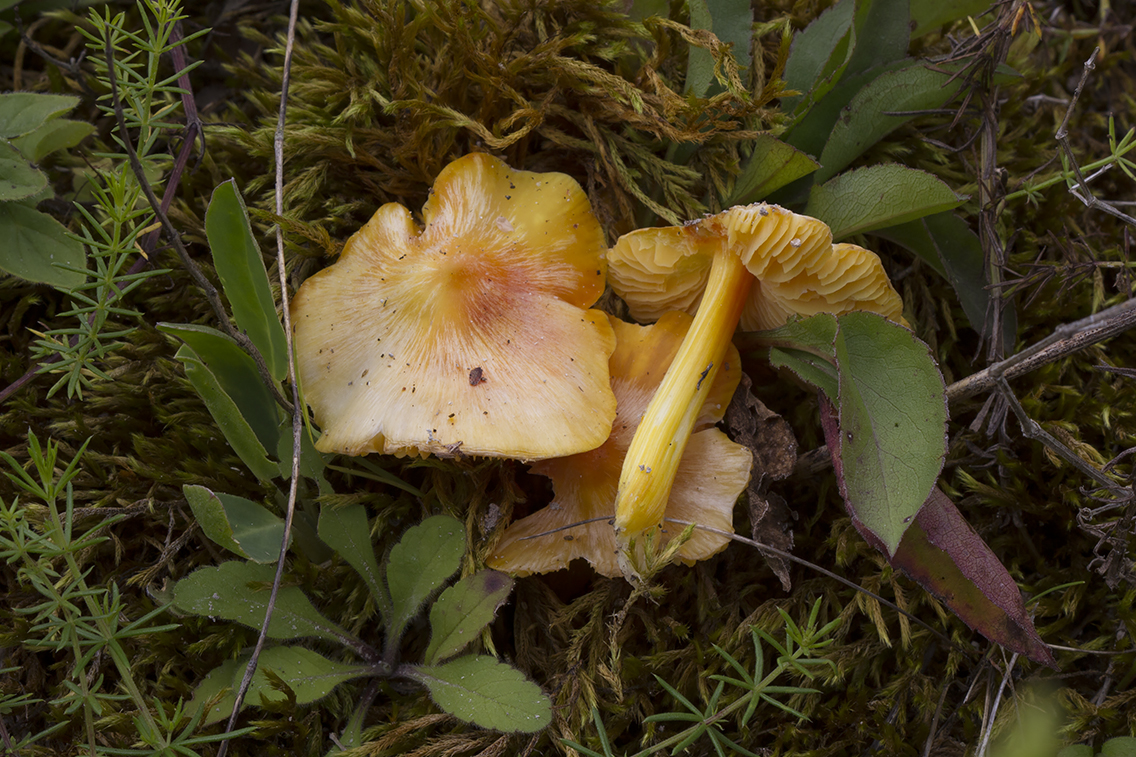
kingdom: Fungi
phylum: Basidiomycota
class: Agaricomycetes
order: Agaricales
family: Hygrophoraceae
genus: Hygrocybe
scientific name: Hygrocybe acutoconica
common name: Konrads vokshat
